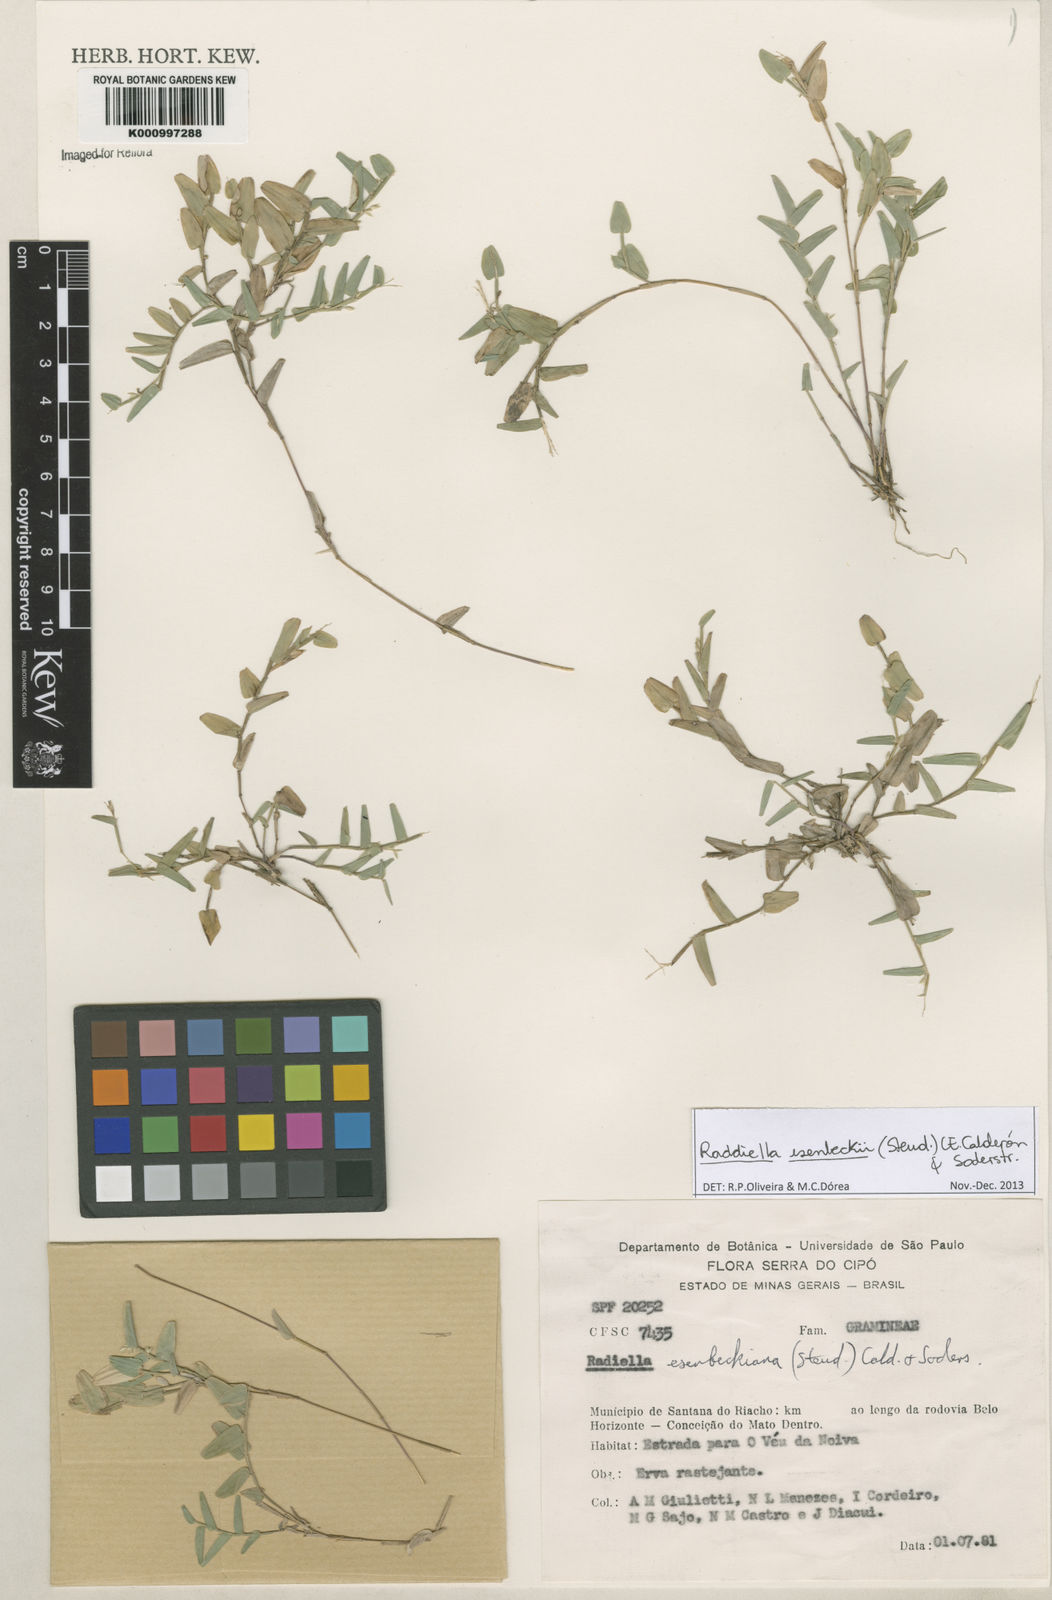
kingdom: Plantae
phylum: Tracheophyta
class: Liliopsida
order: Poales
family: Poaceae
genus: Raddiella
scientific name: Raddiella
